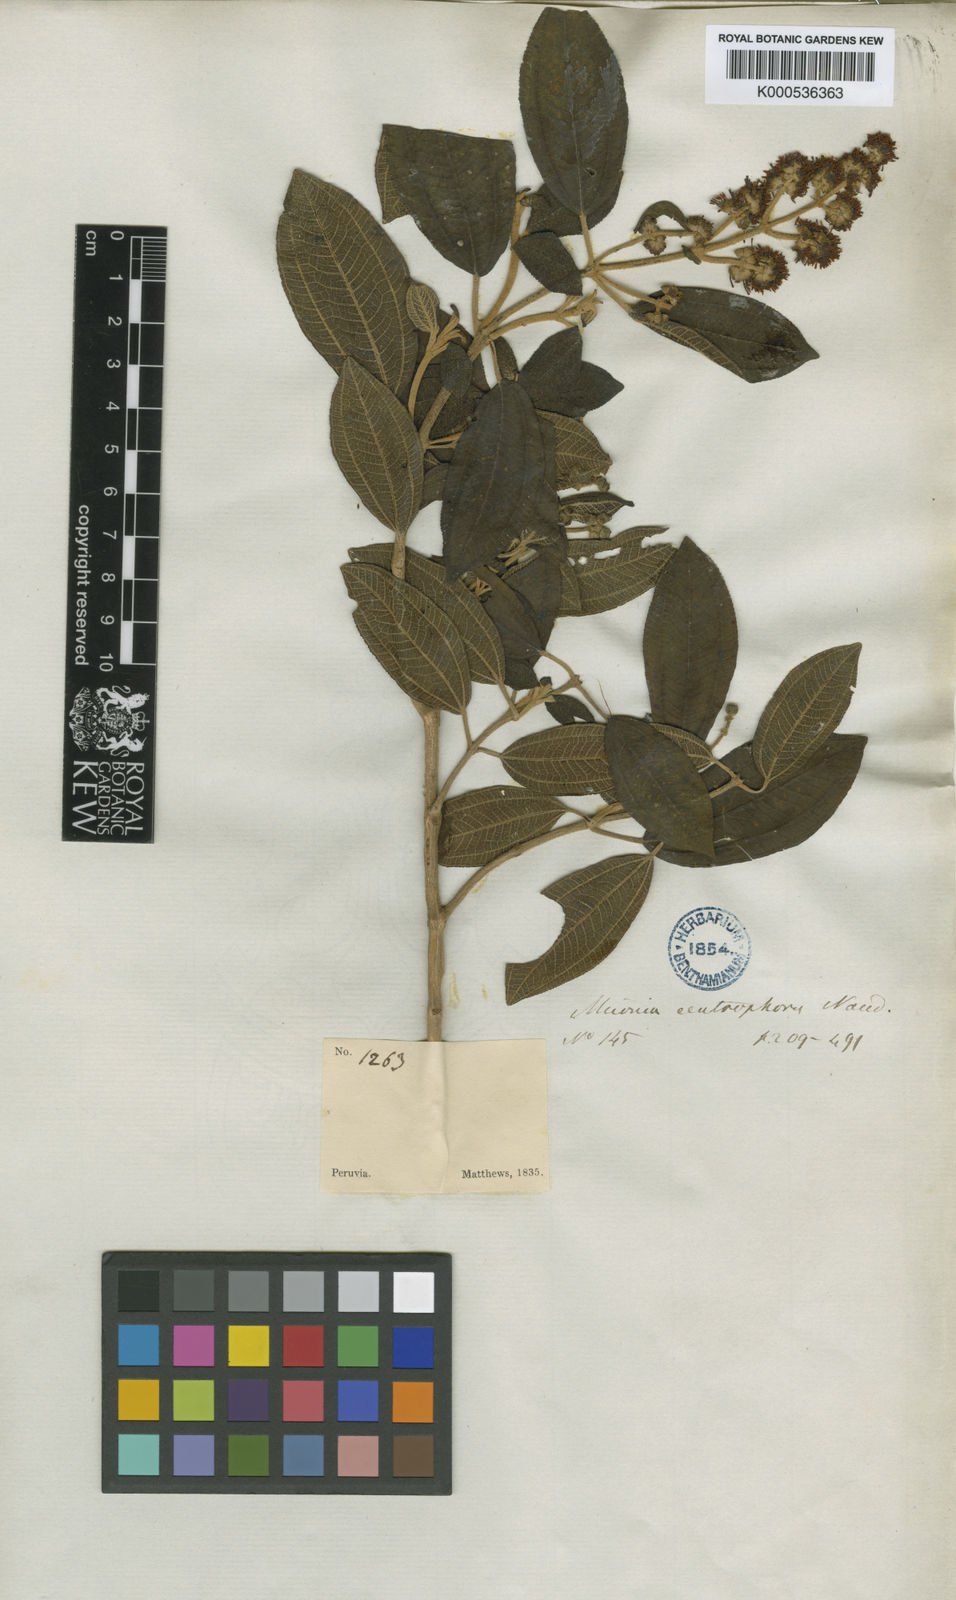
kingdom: Plantae
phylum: Tracheophyta
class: Magnoliopsida
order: Myrtales
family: Melastomataceae
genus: Miconia
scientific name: Miconia centrophora
